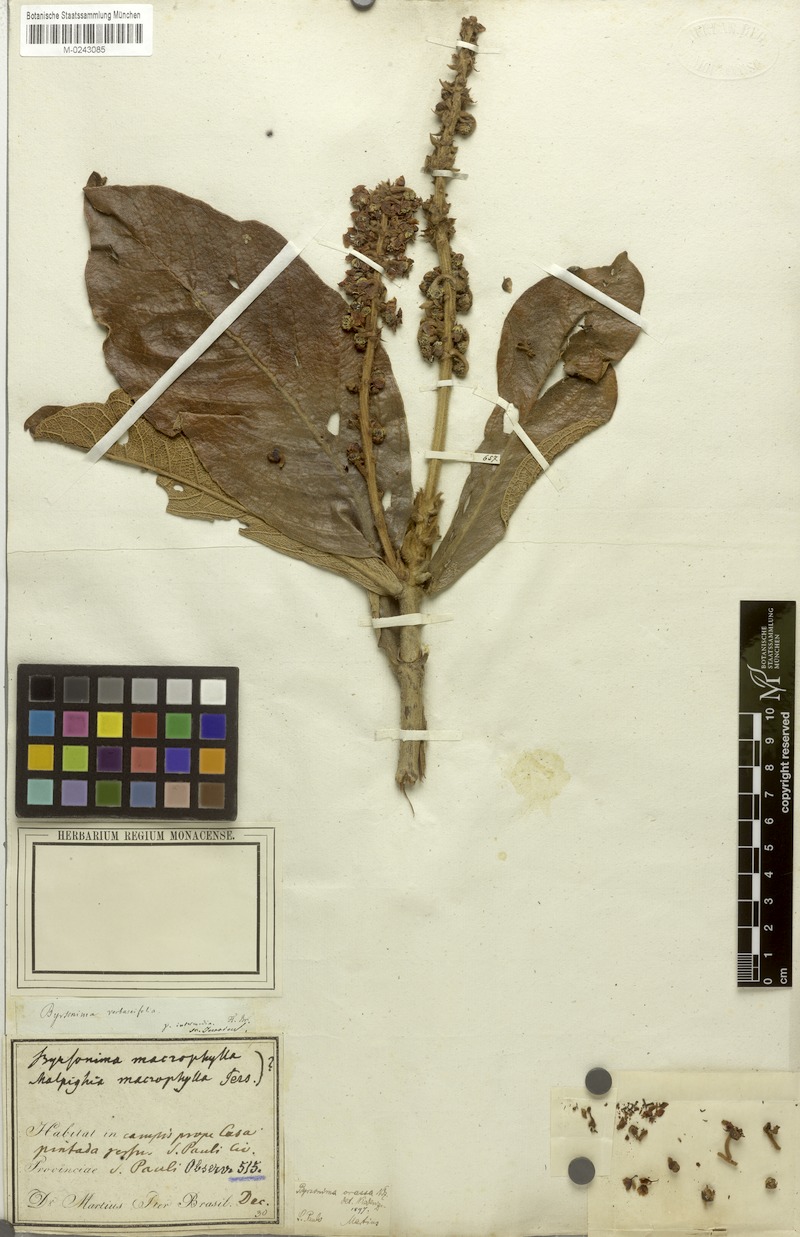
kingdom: Plantae
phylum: Tracheophyta
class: Magnoliopsida
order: Malpighiales
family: Malpighiaceae
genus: Byrsonima
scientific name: Byrsonima pachyphylla
